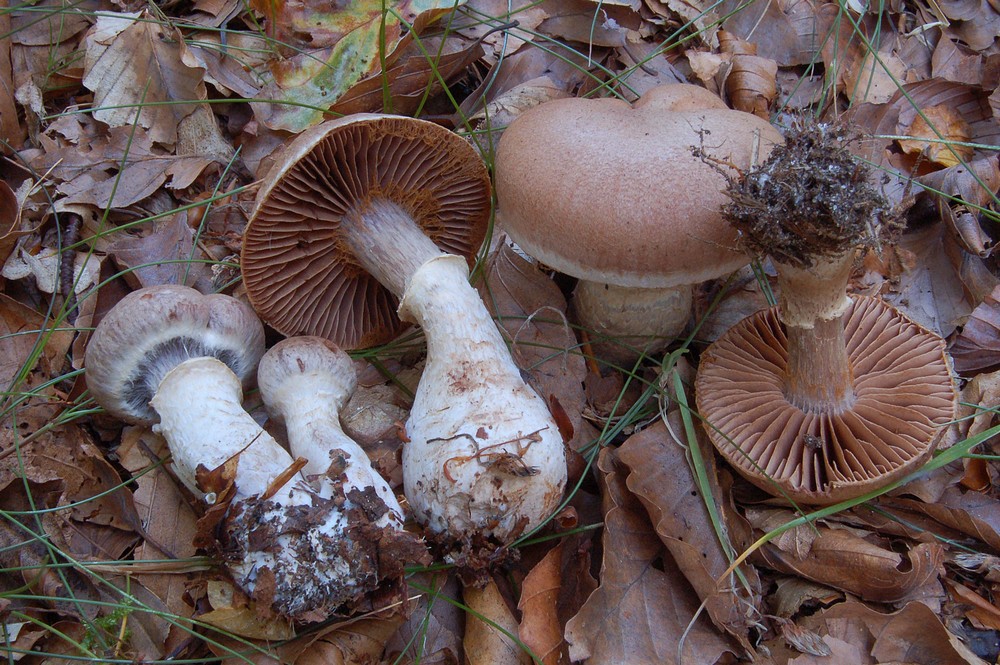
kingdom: Fungi
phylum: Basidiomycota
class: Agaricomycetes
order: Agaricales
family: Cortinariaceae
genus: Cortinarius
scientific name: Cortinarius torvus
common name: champignonagtig slørhat
